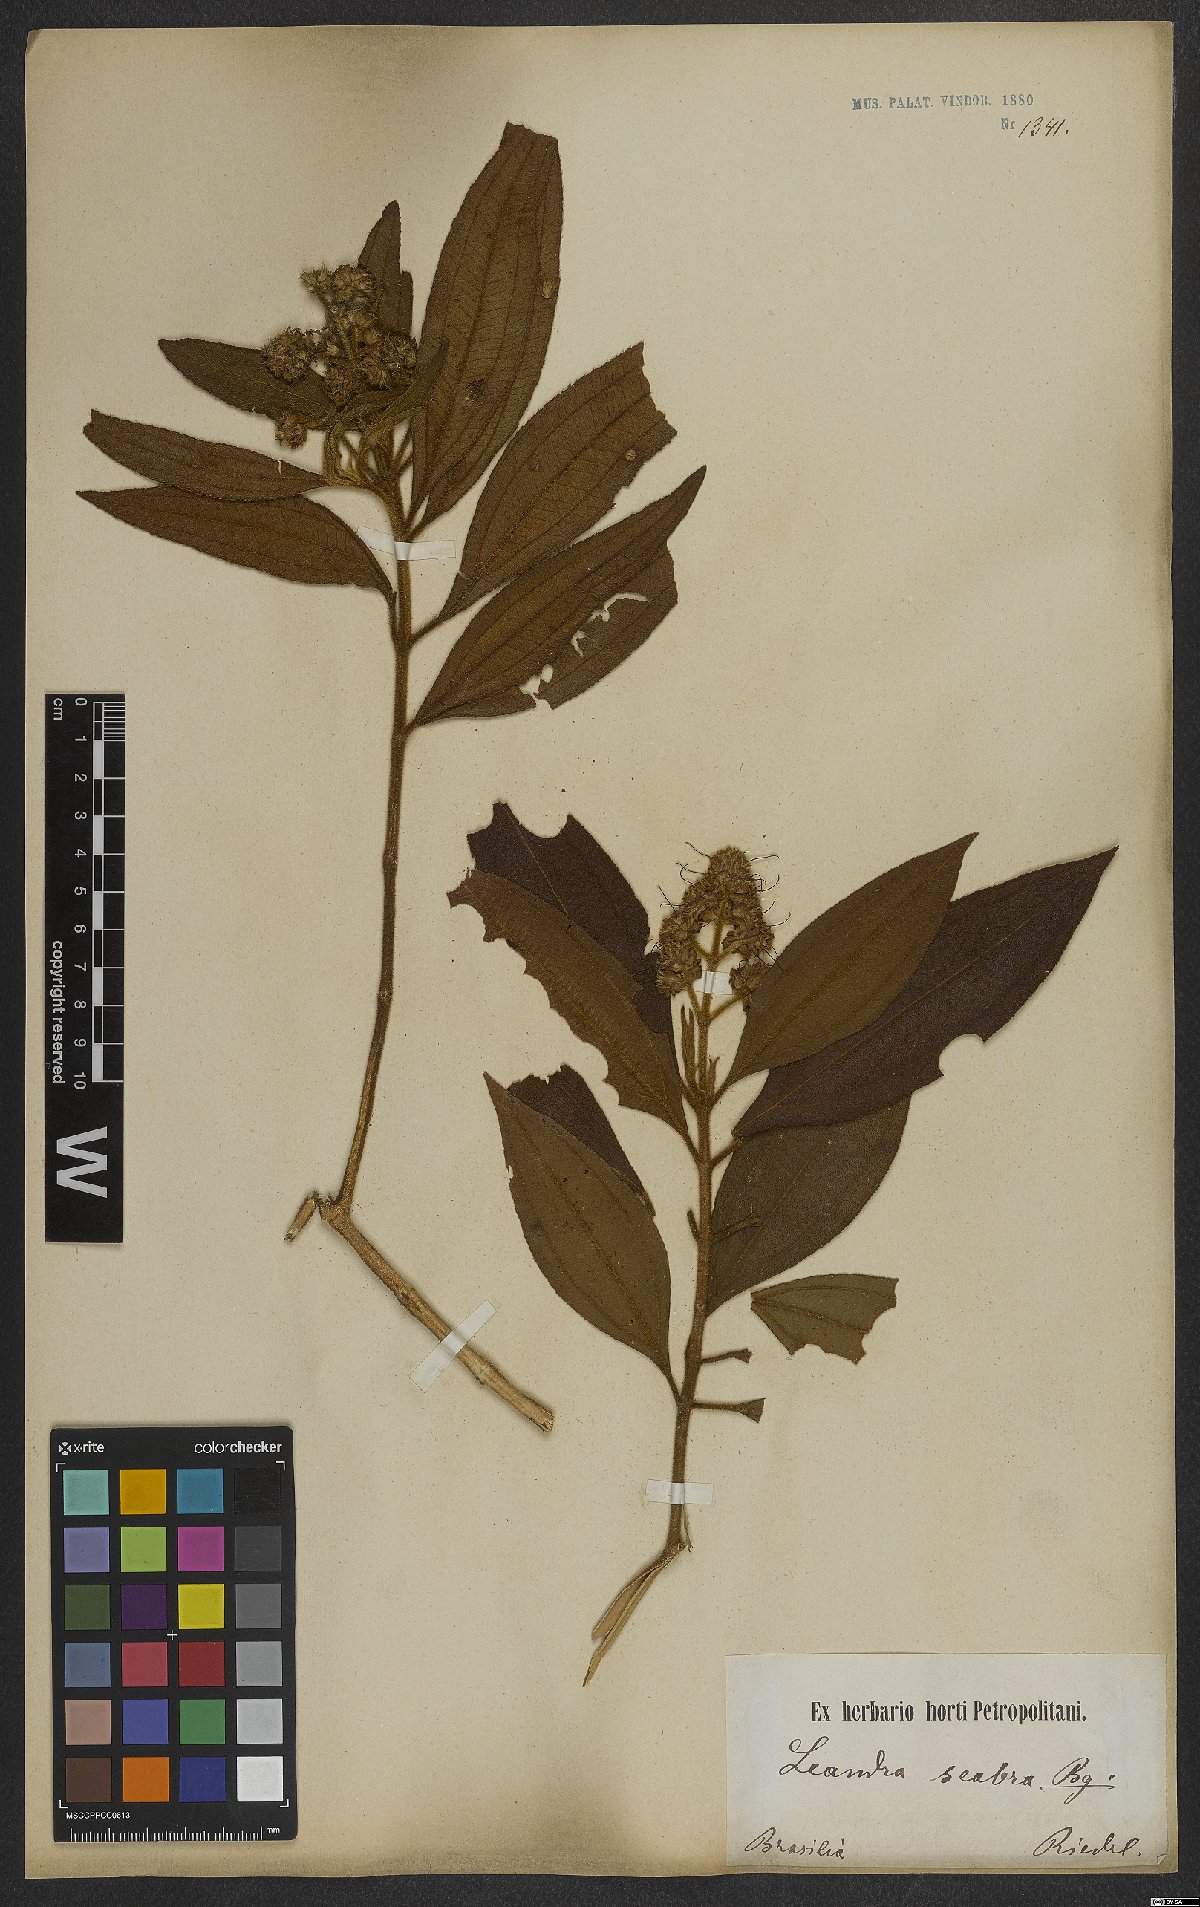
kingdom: Plantae
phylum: Tracheophyta
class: Magnoliopsida
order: Myrtales
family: Melastomataceae
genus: Miconia
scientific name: Miconia melastomoides
